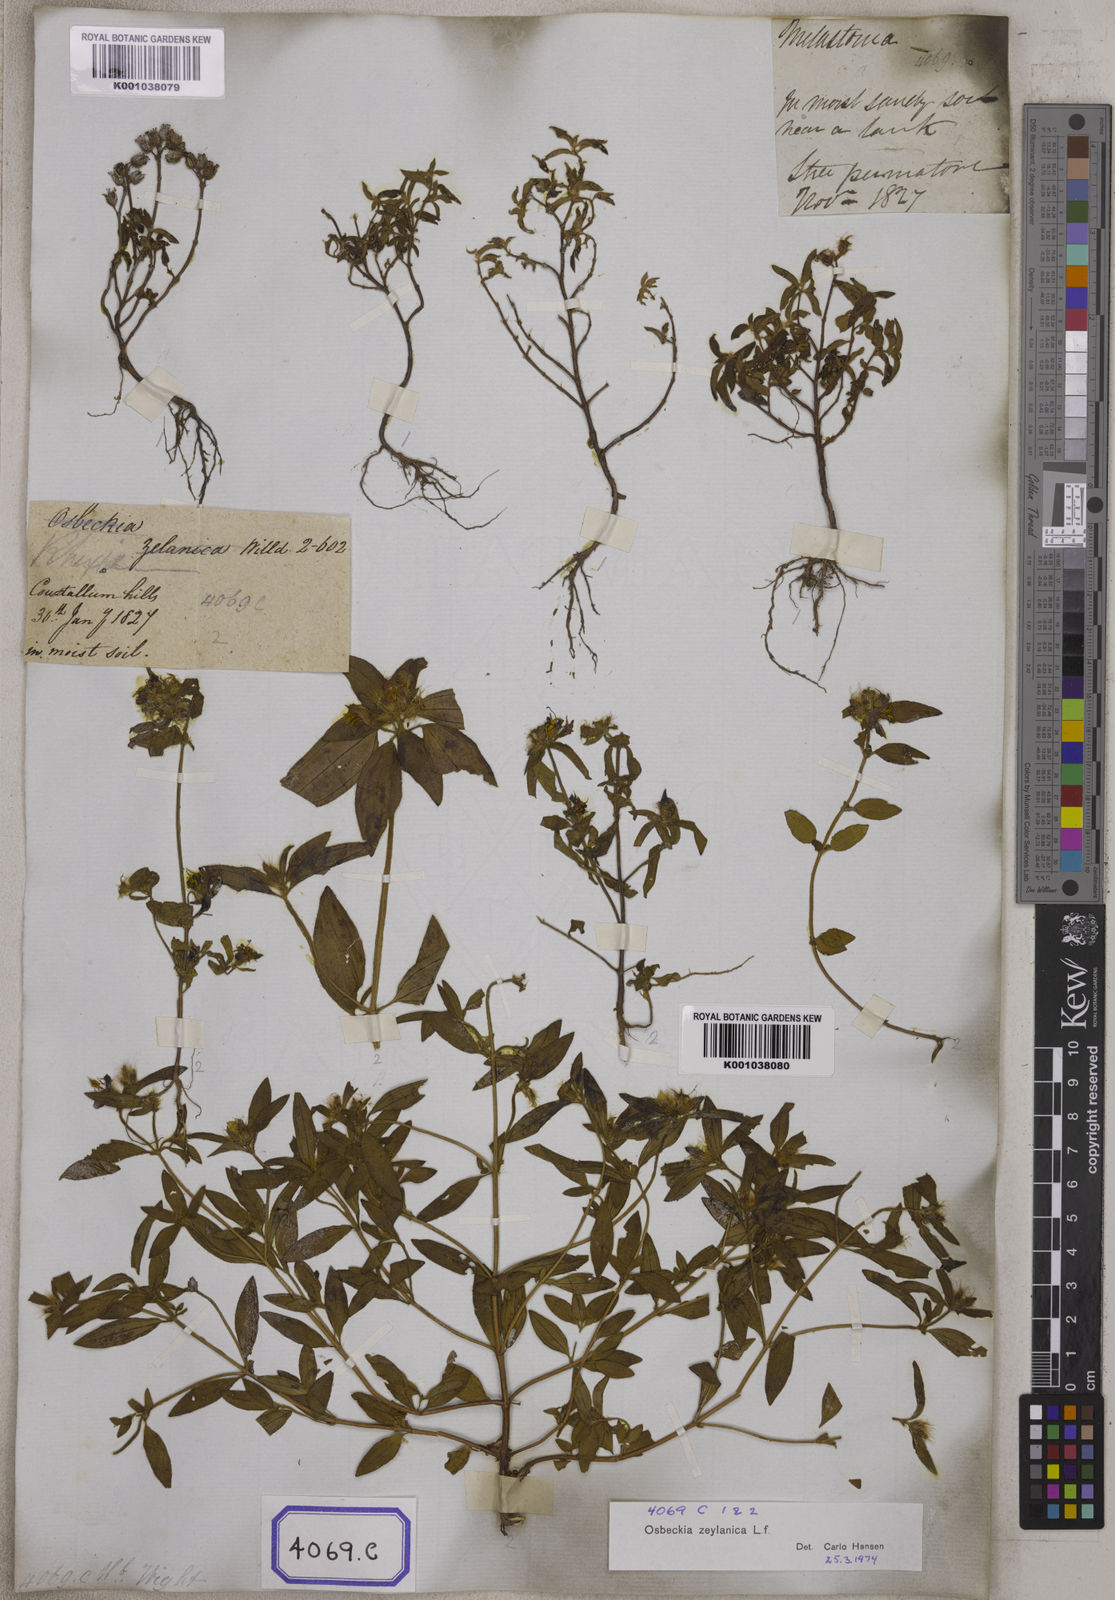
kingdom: Plantae
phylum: Tracheophyta
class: Magnoliopsida
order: Myrtales
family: Melastomataceae
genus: Osbeckia
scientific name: Osbeckia zeylanica
